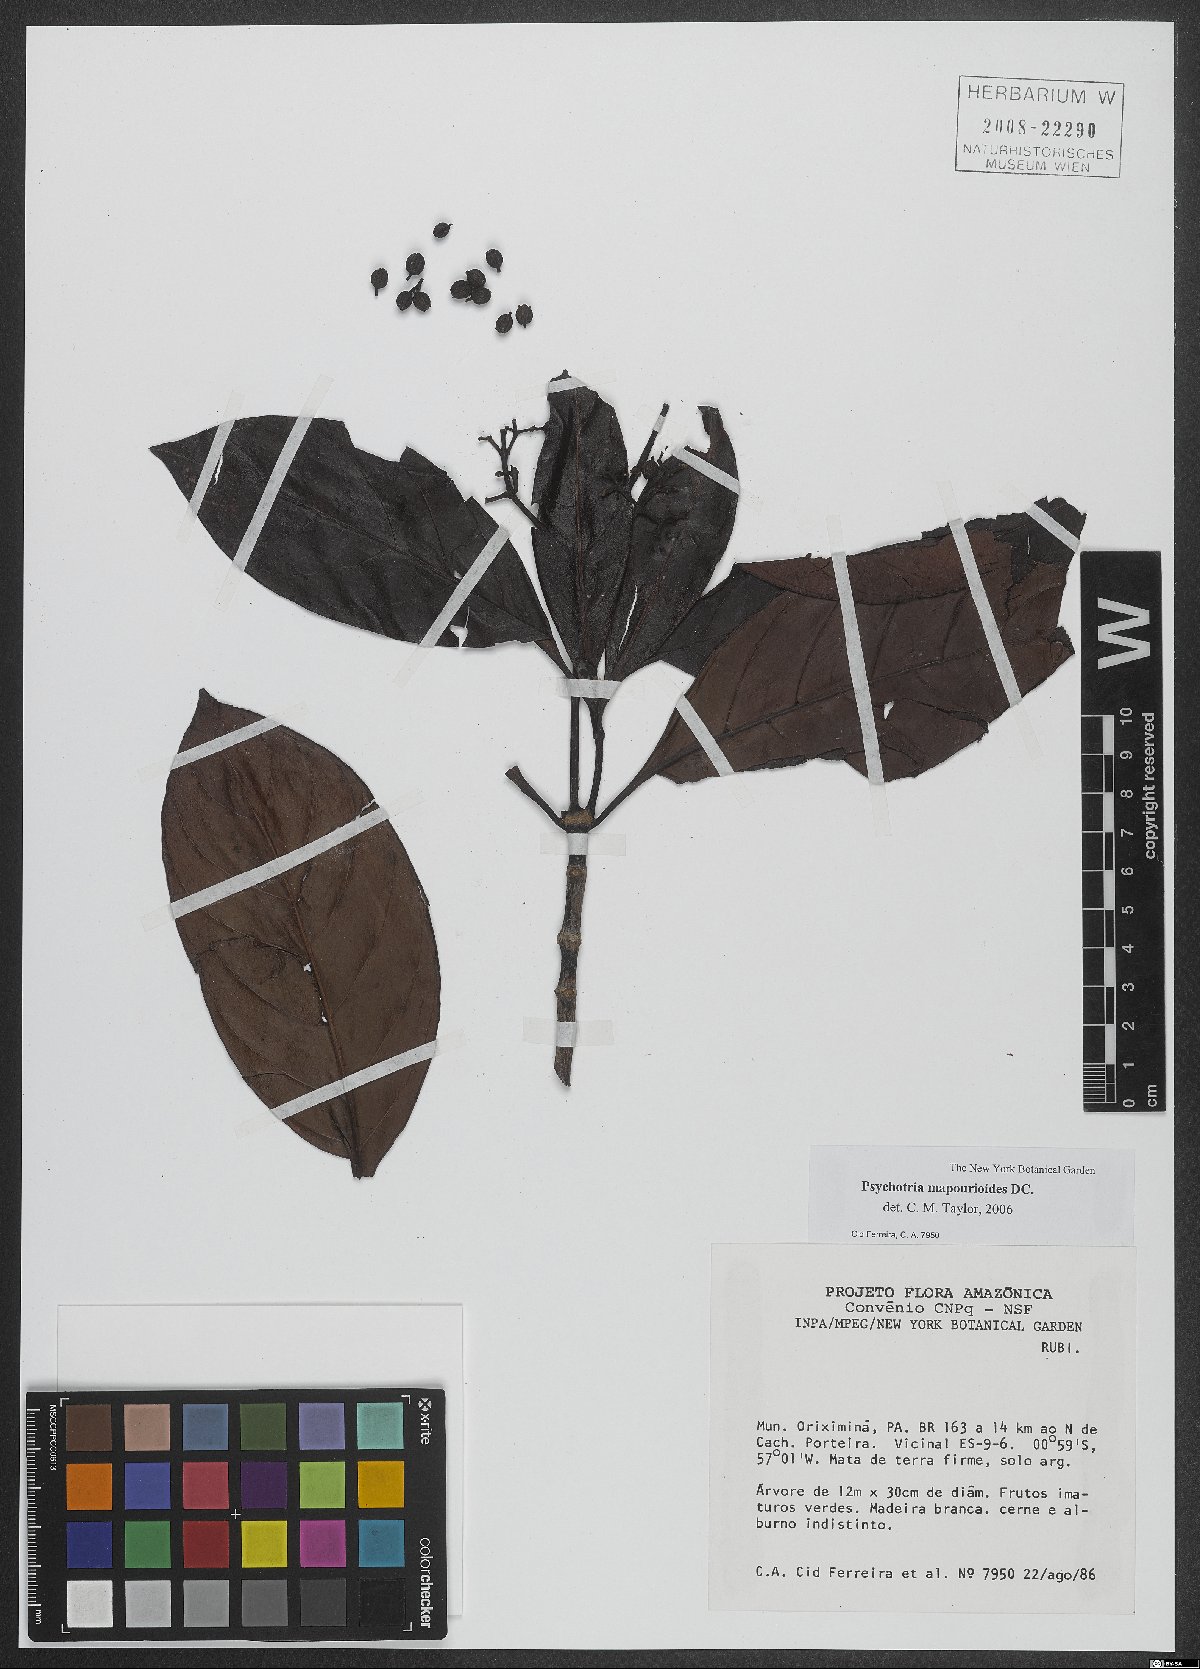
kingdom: Plantae
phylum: Tracheophyta
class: Magnoliopsida
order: Gentianales
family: Rubiaceae
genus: Psychotria
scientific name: Psychotria pedunculosa
